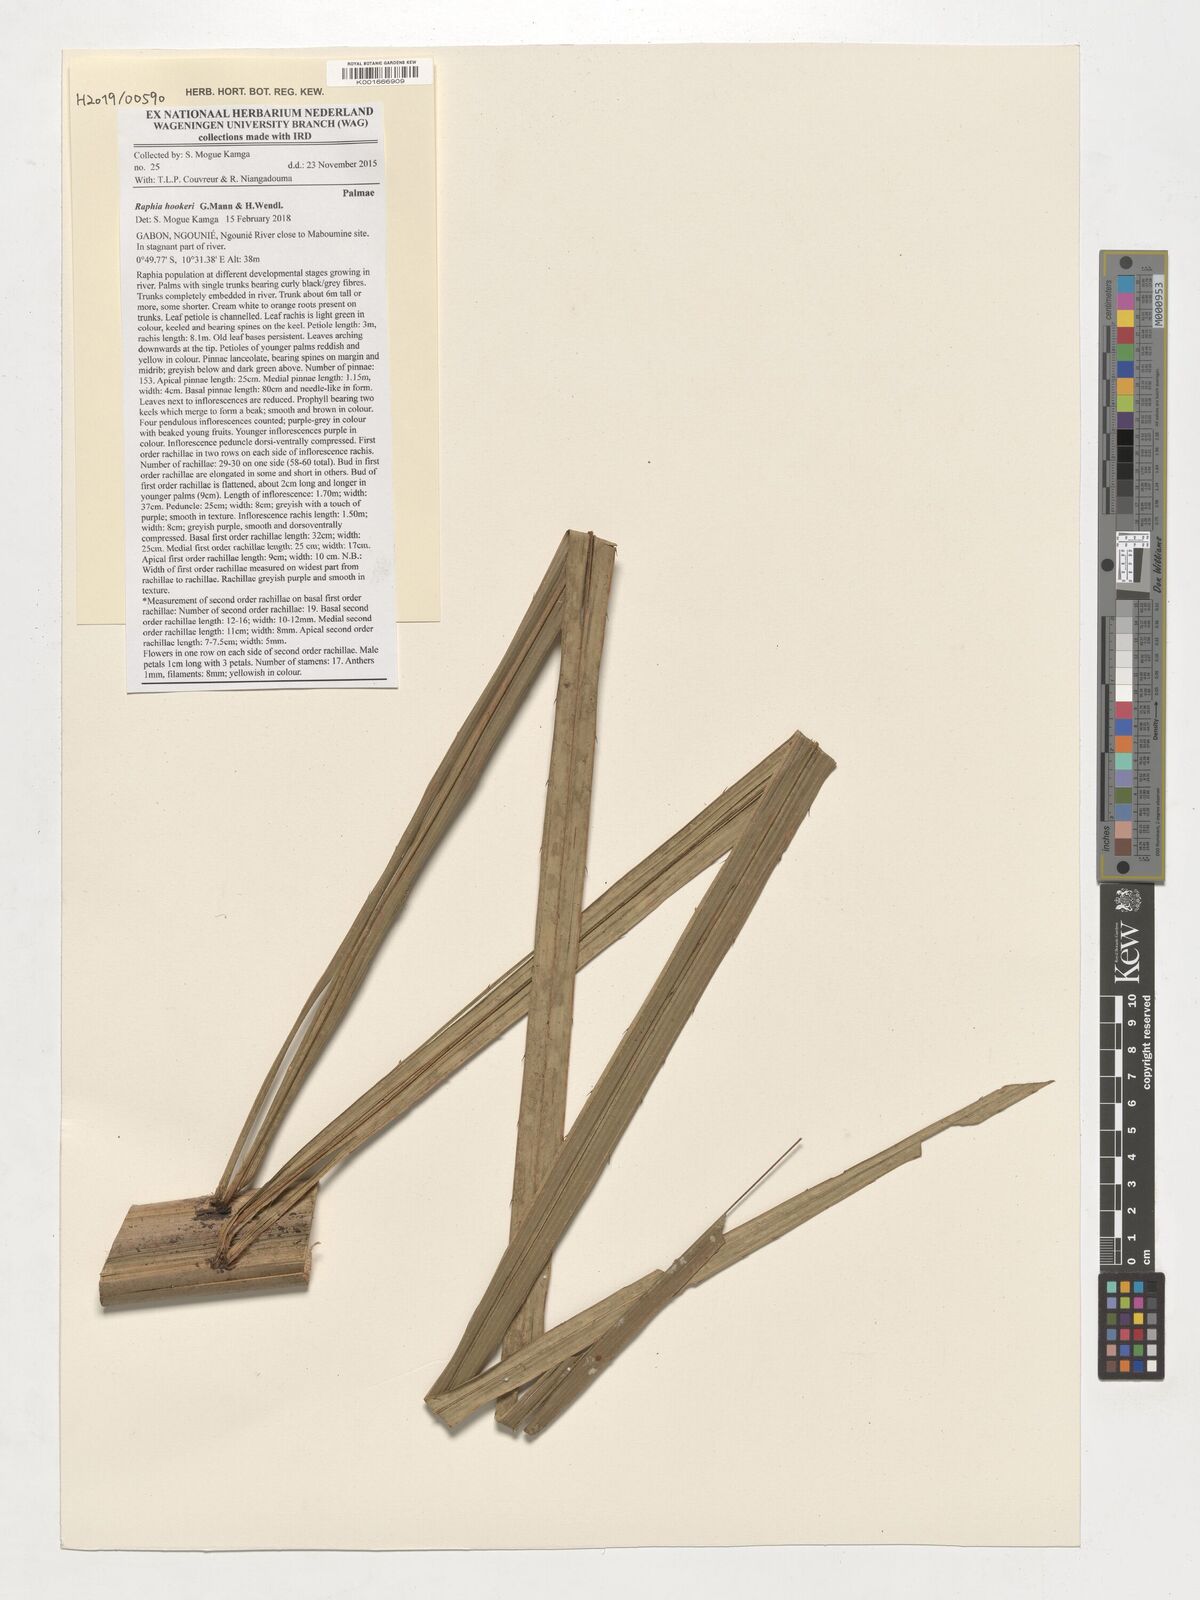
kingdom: Plantae
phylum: Tracheophyta
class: Liliopsida
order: Arecales
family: Arecaceae
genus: Raphia
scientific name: Raphia hookeri
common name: Wine palm
